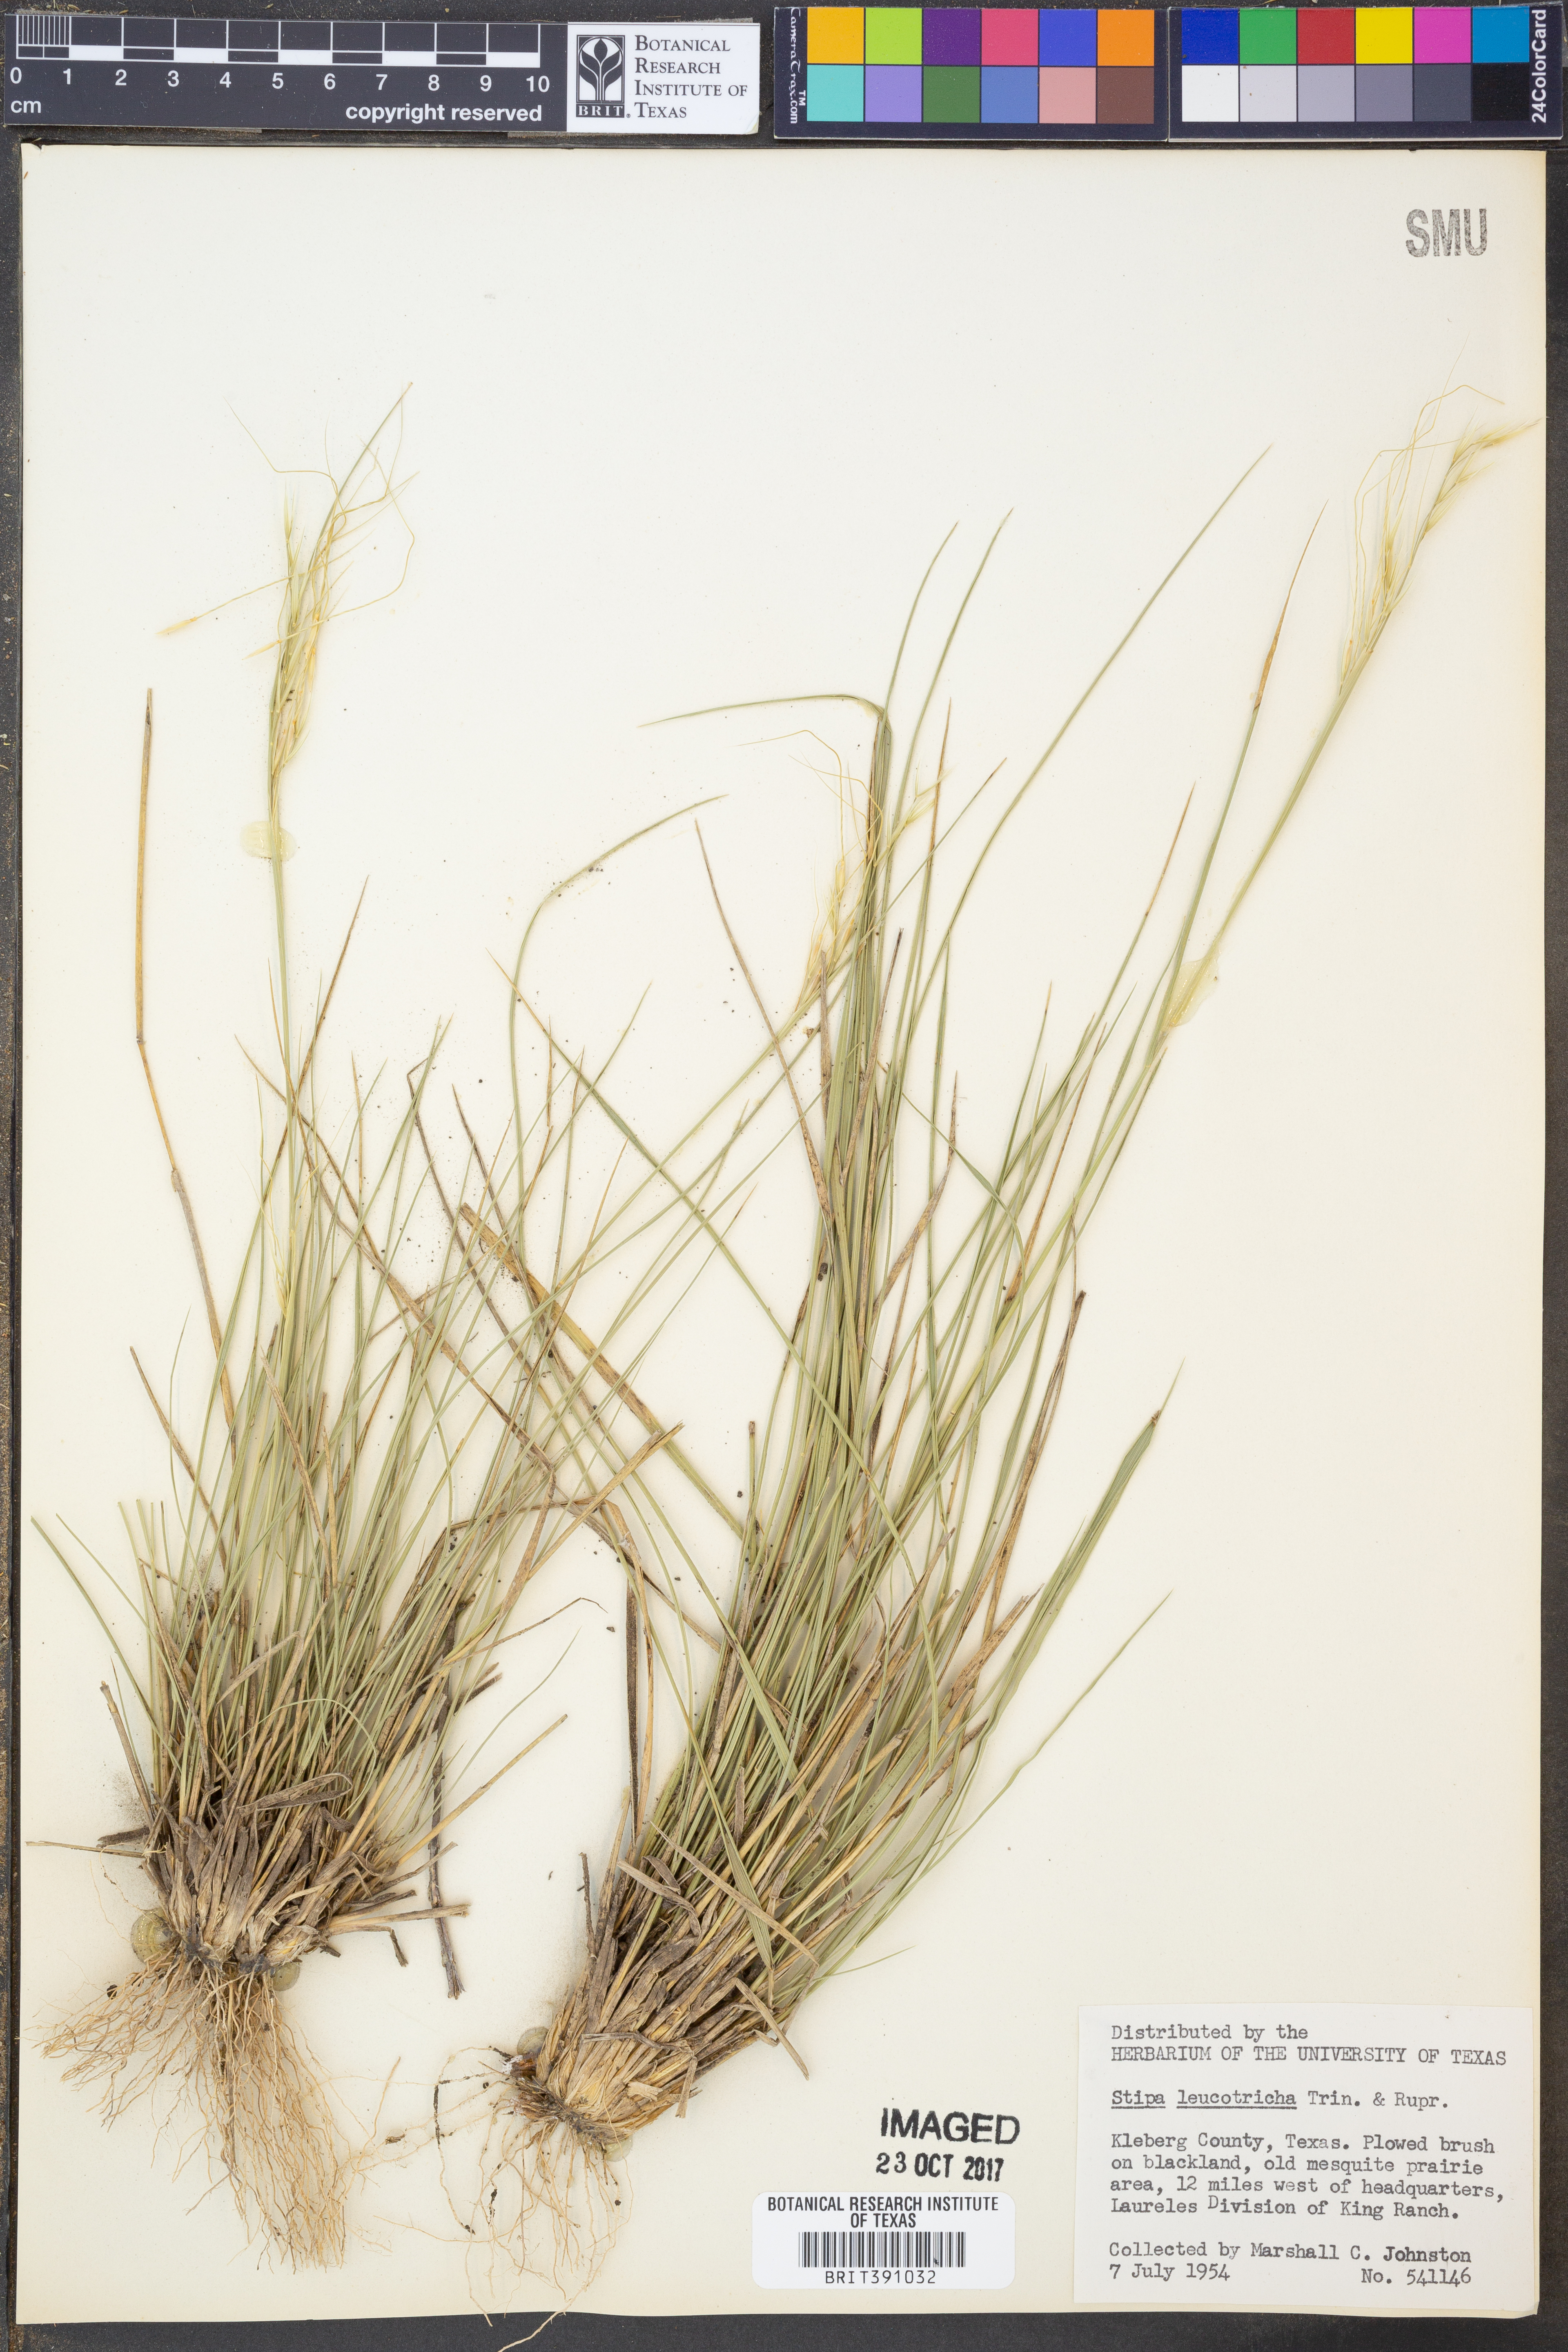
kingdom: Plantae
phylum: Tracheophyta
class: Liliopsida
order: Poales
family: Poaceae
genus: Nassella
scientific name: Nassella leucotricha
